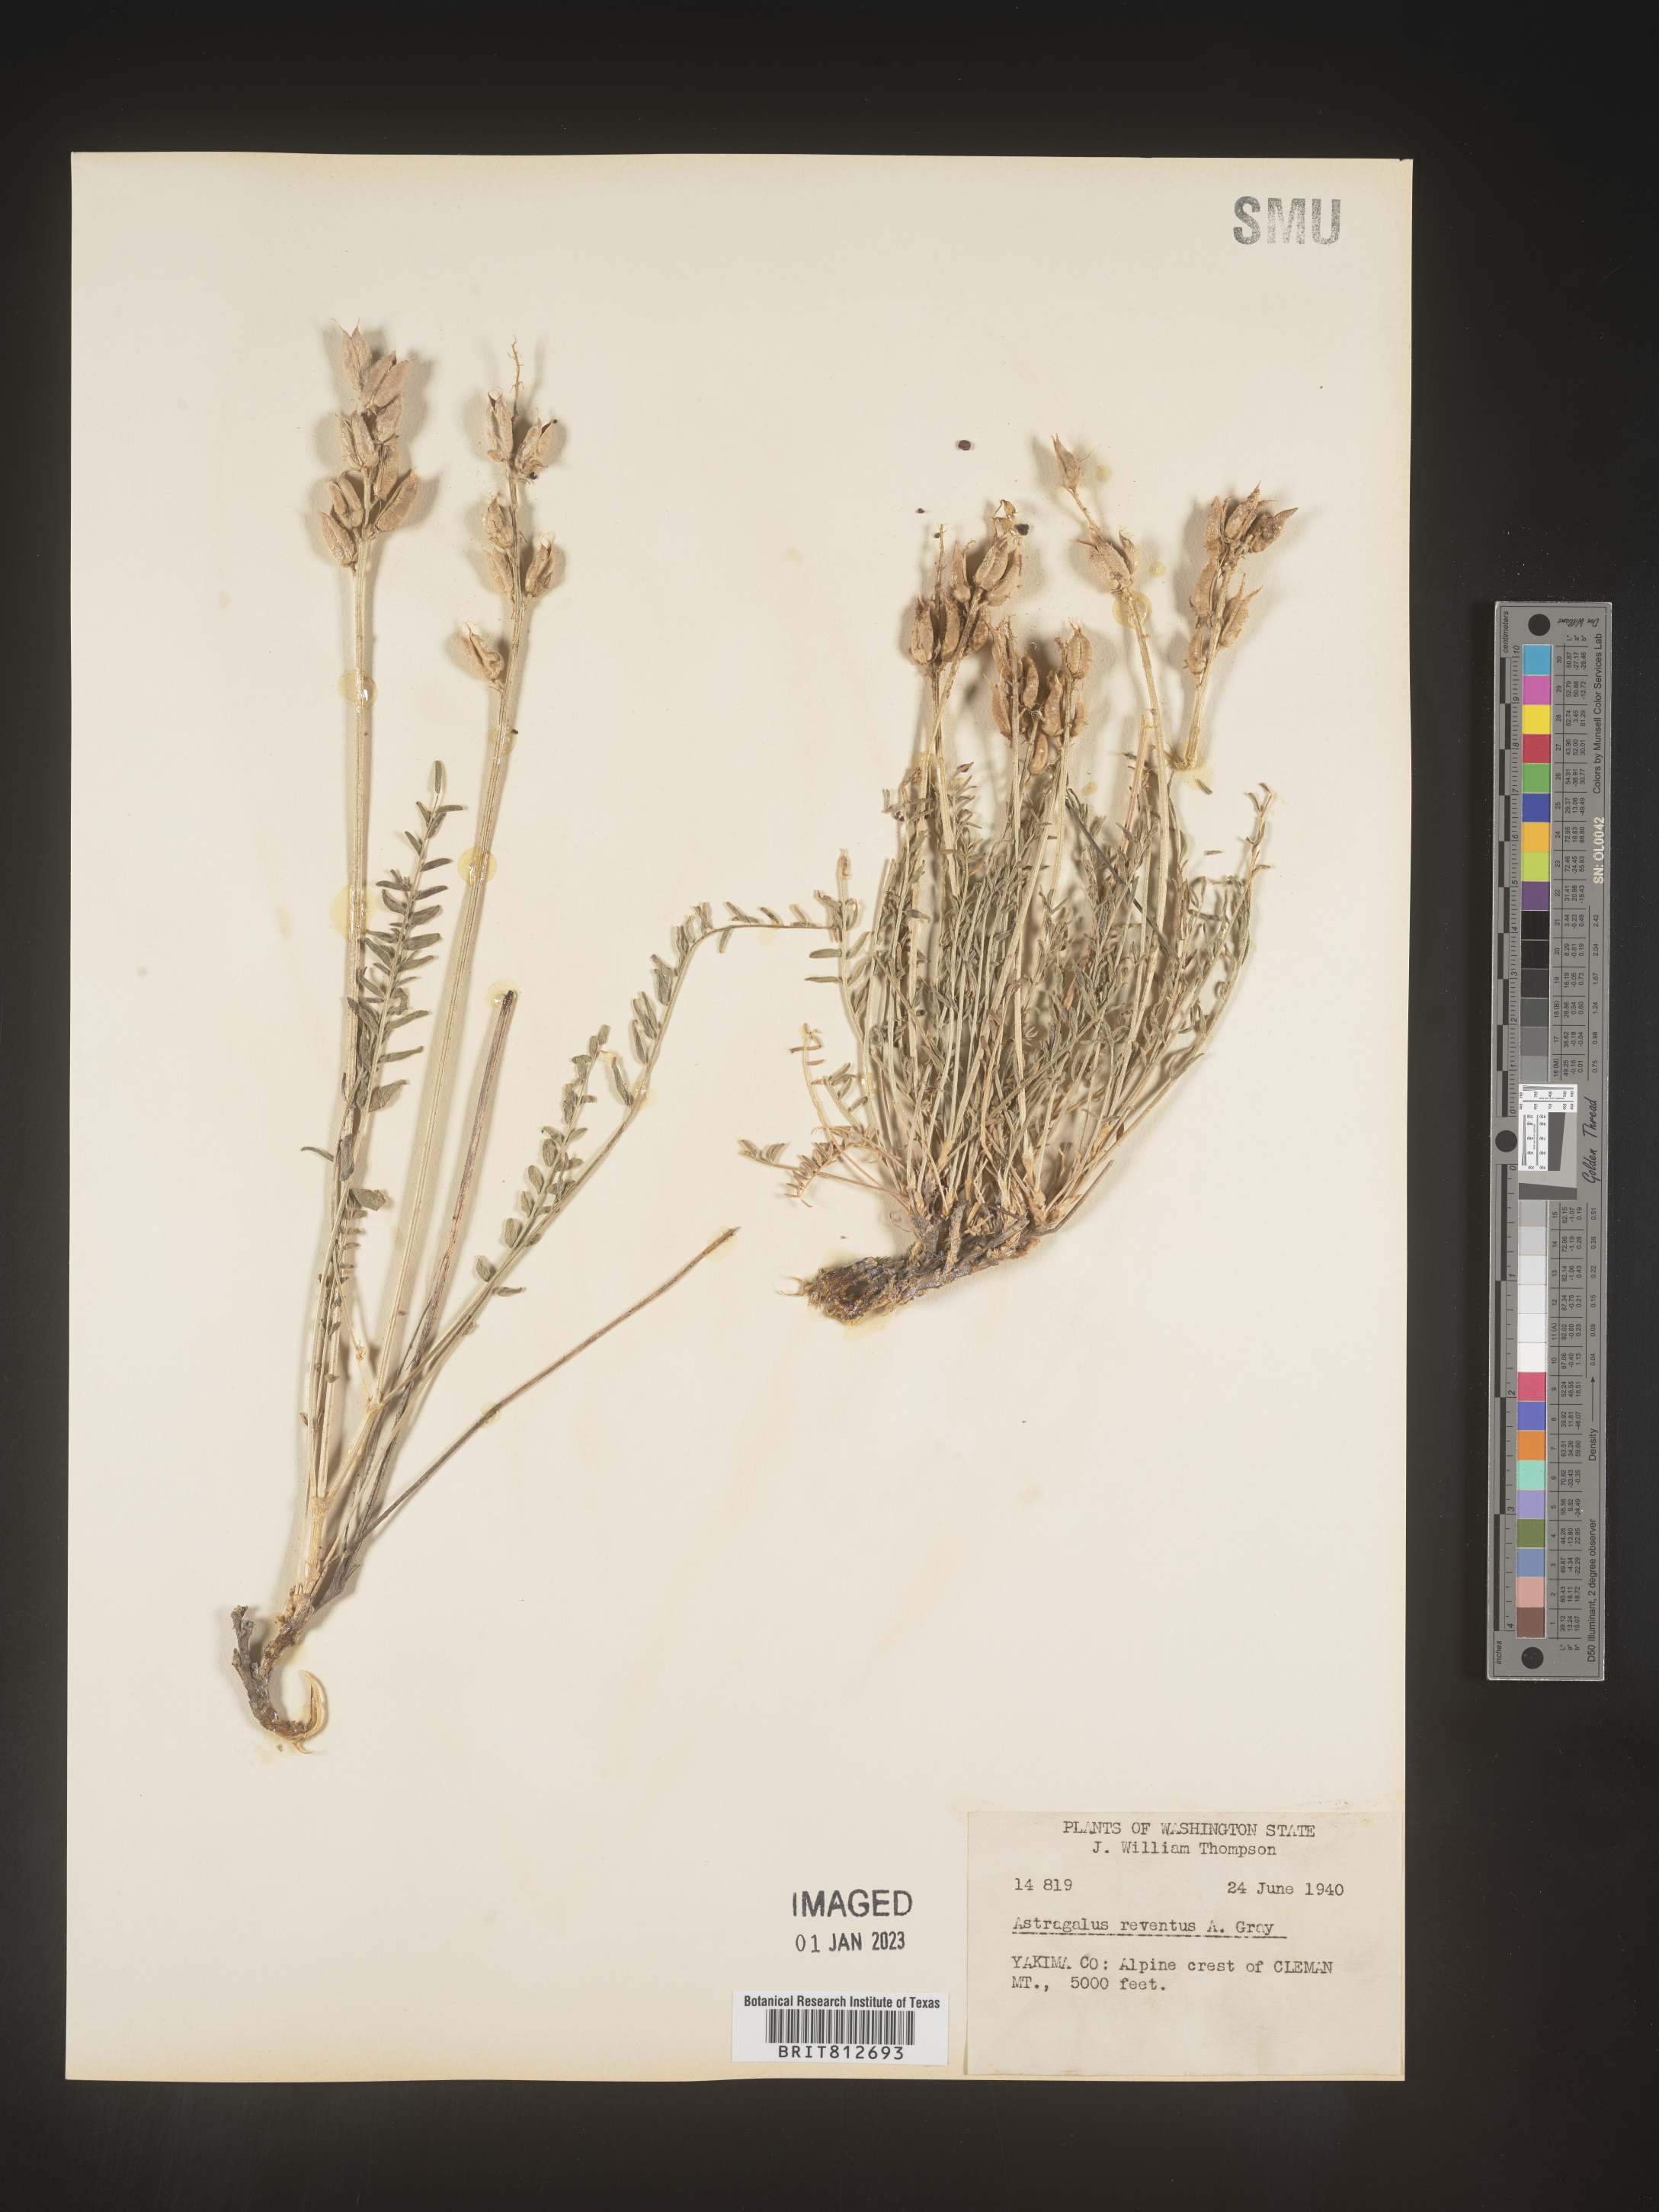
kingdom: Plantae
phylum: Tracheophyta
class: Magnoliopsida
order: Fabales
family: Fabaceae
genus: Astragalus
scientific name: Astragalus
